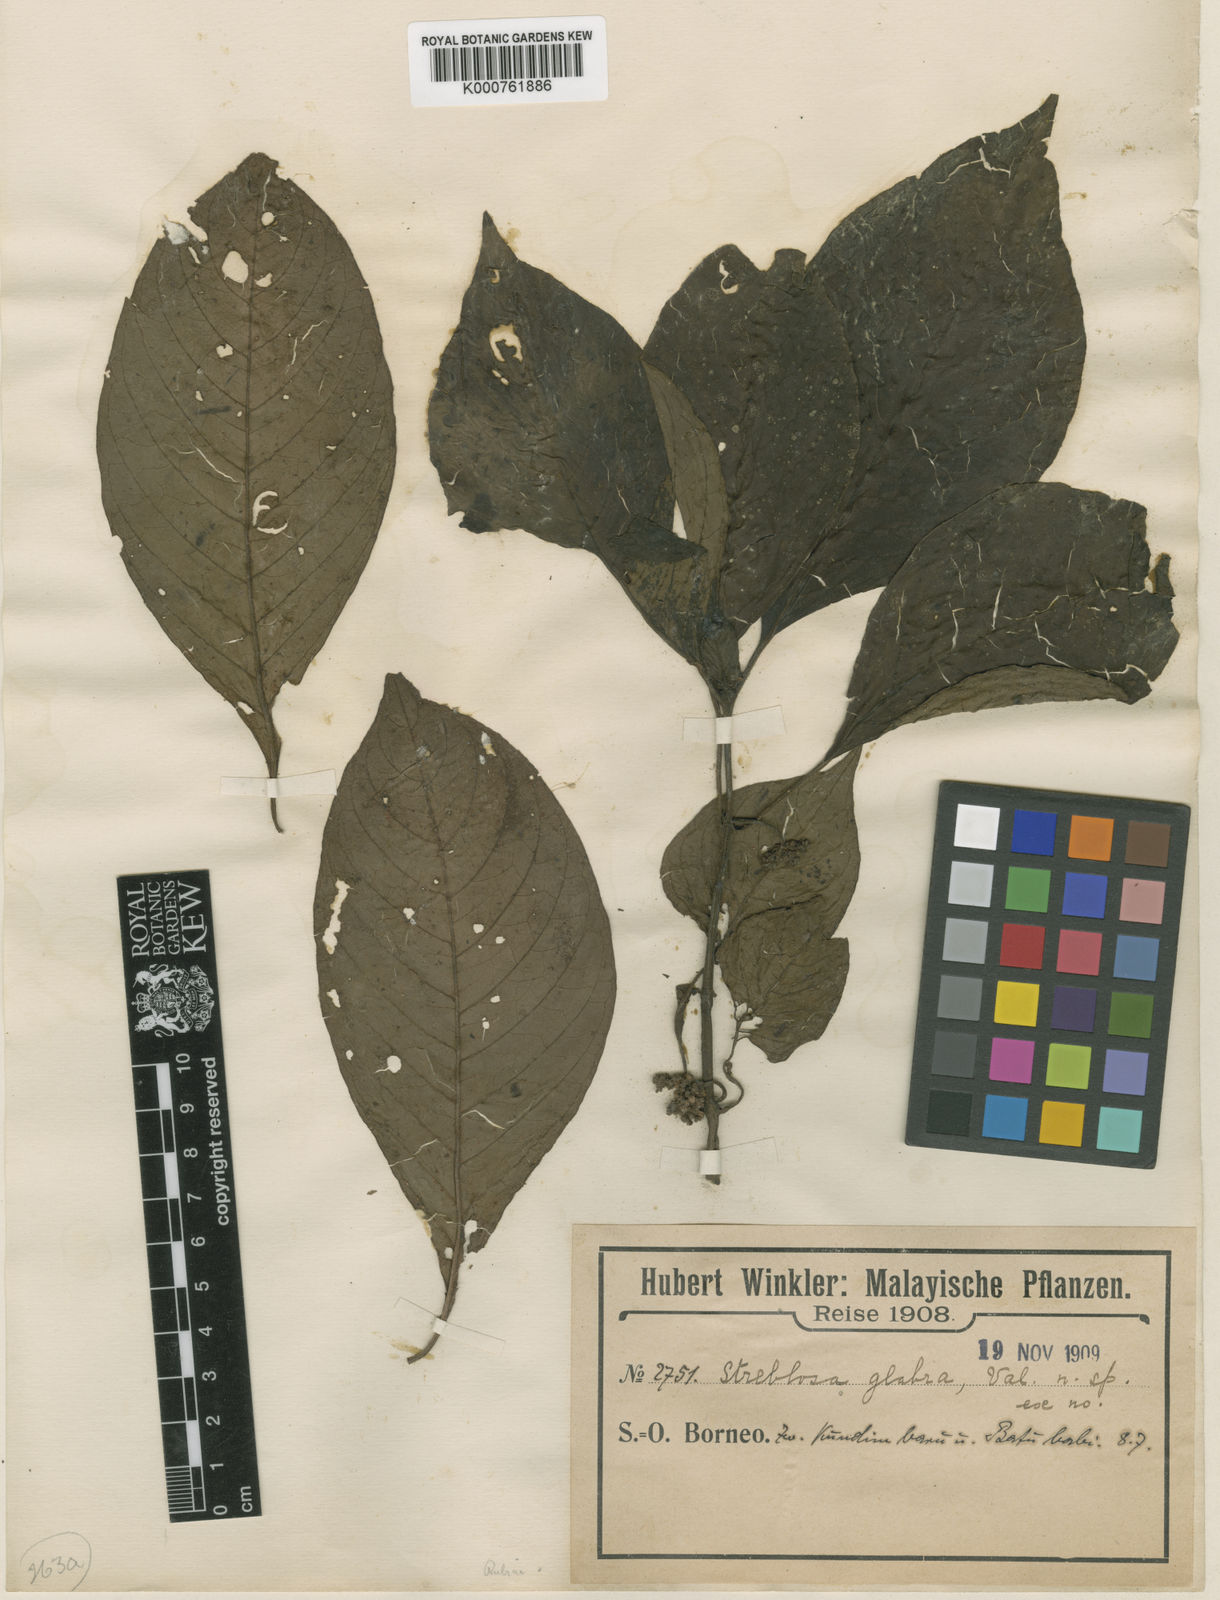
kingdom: Plantae
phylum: Tracheophyta
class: Magnoliopsida
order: Gentianales
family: Rubiaceae
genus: Streblosa
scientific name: Streblosa
